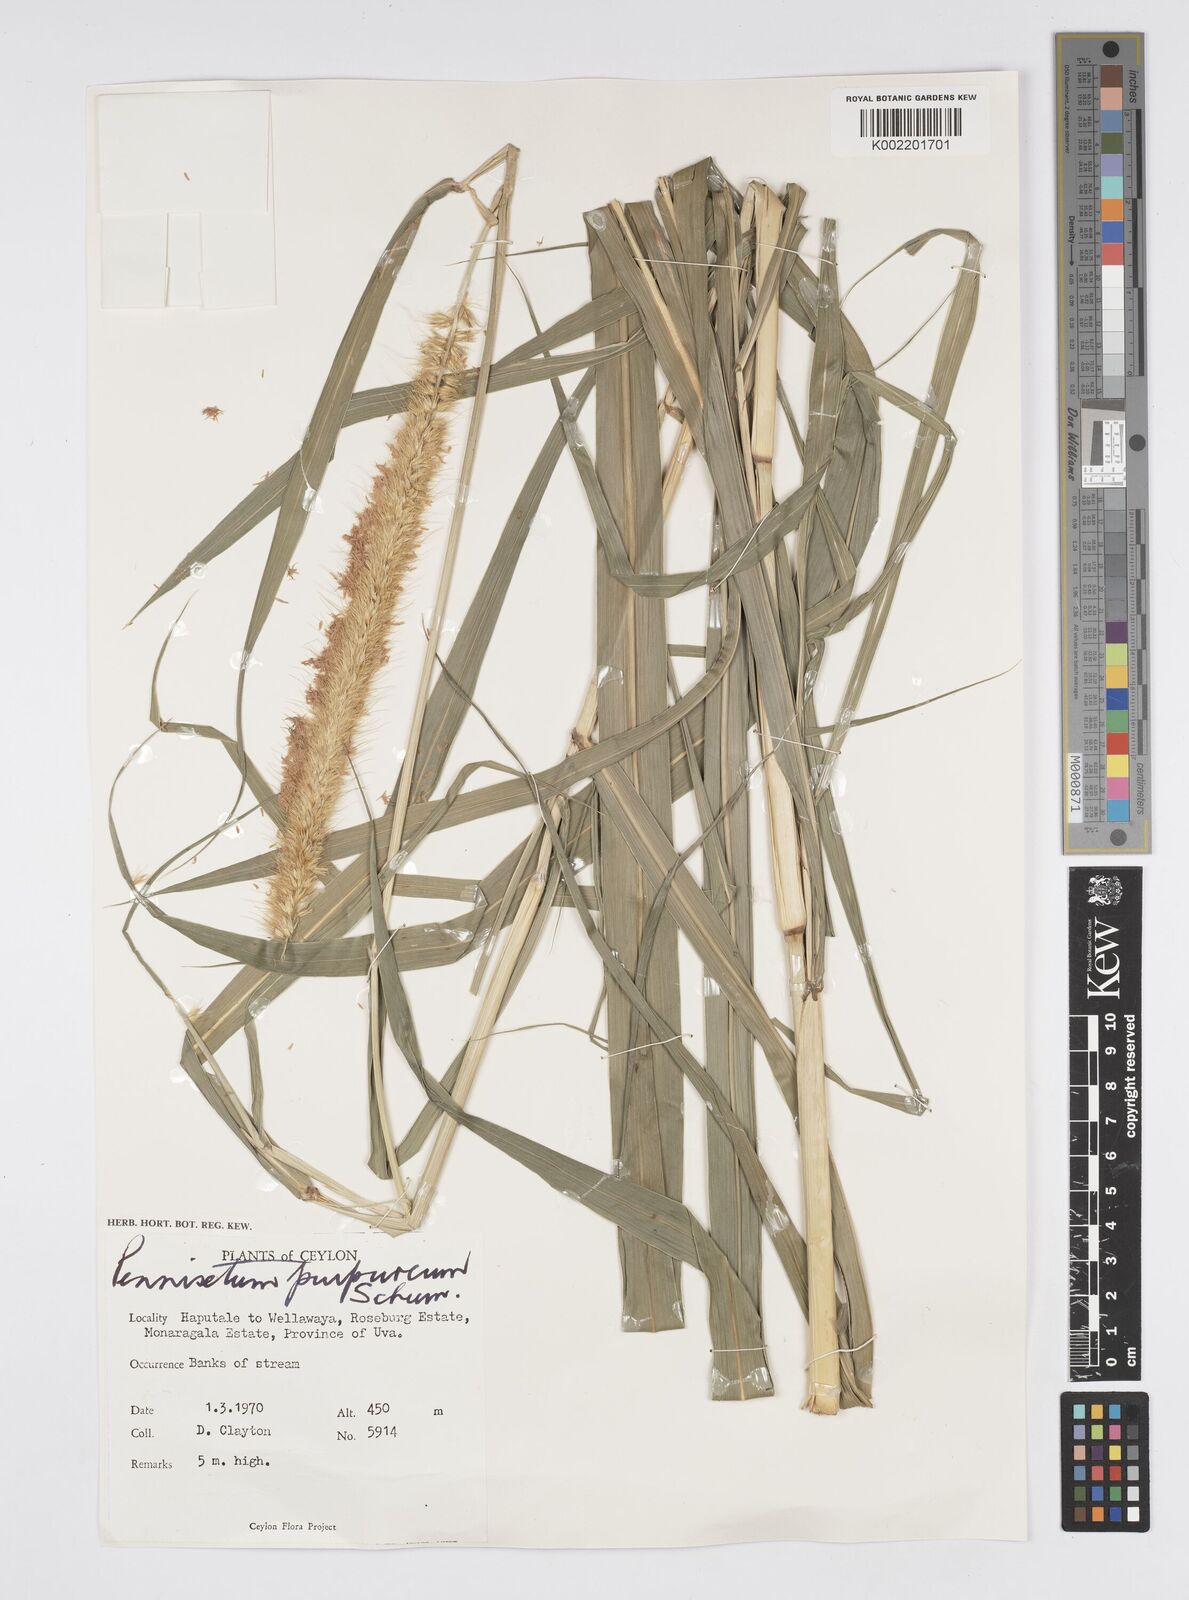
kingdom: Plantae
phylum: Tracheophyta
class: Liliopsida
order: Poales
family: Poaceae
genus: Cenchrus
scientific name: Cenchrus purpureus
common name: Elephant grass
